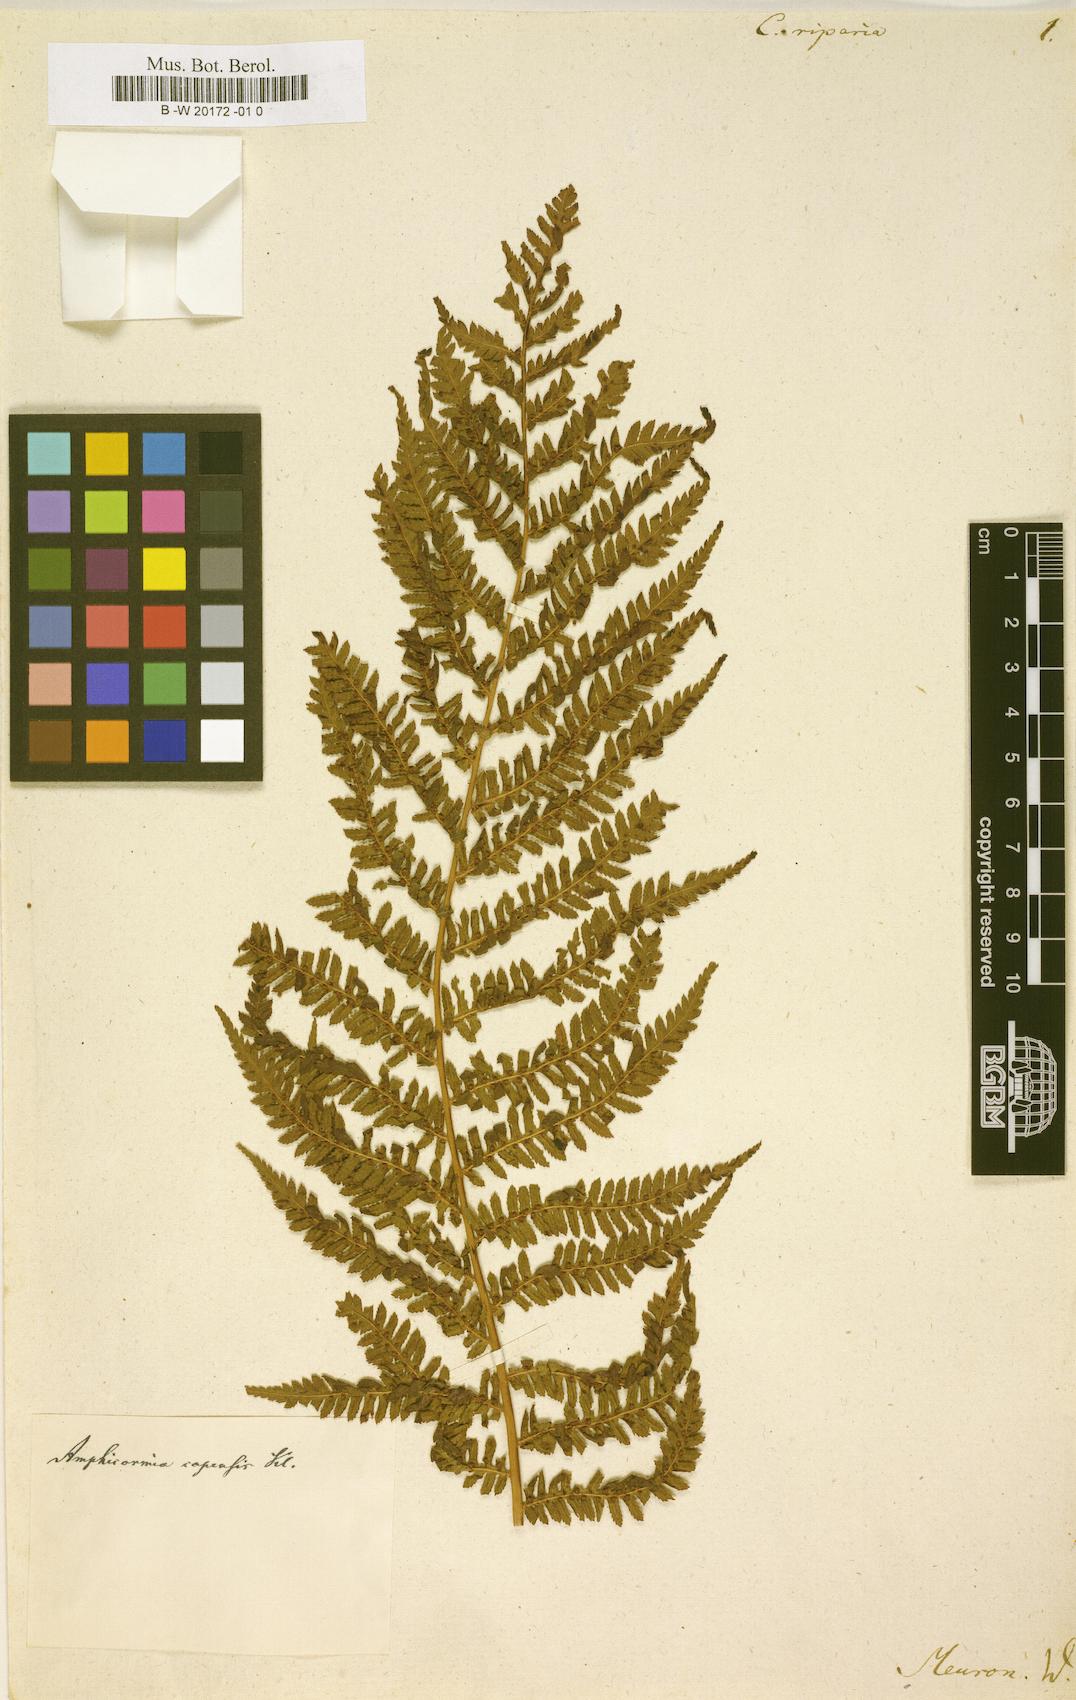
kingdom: Plantae
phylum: Tracheophyta
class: Polypodiopsida
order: Cyatheales
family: Cyatheaceae
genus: Gymnosphaera
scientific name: Gymnosphaera capensis
